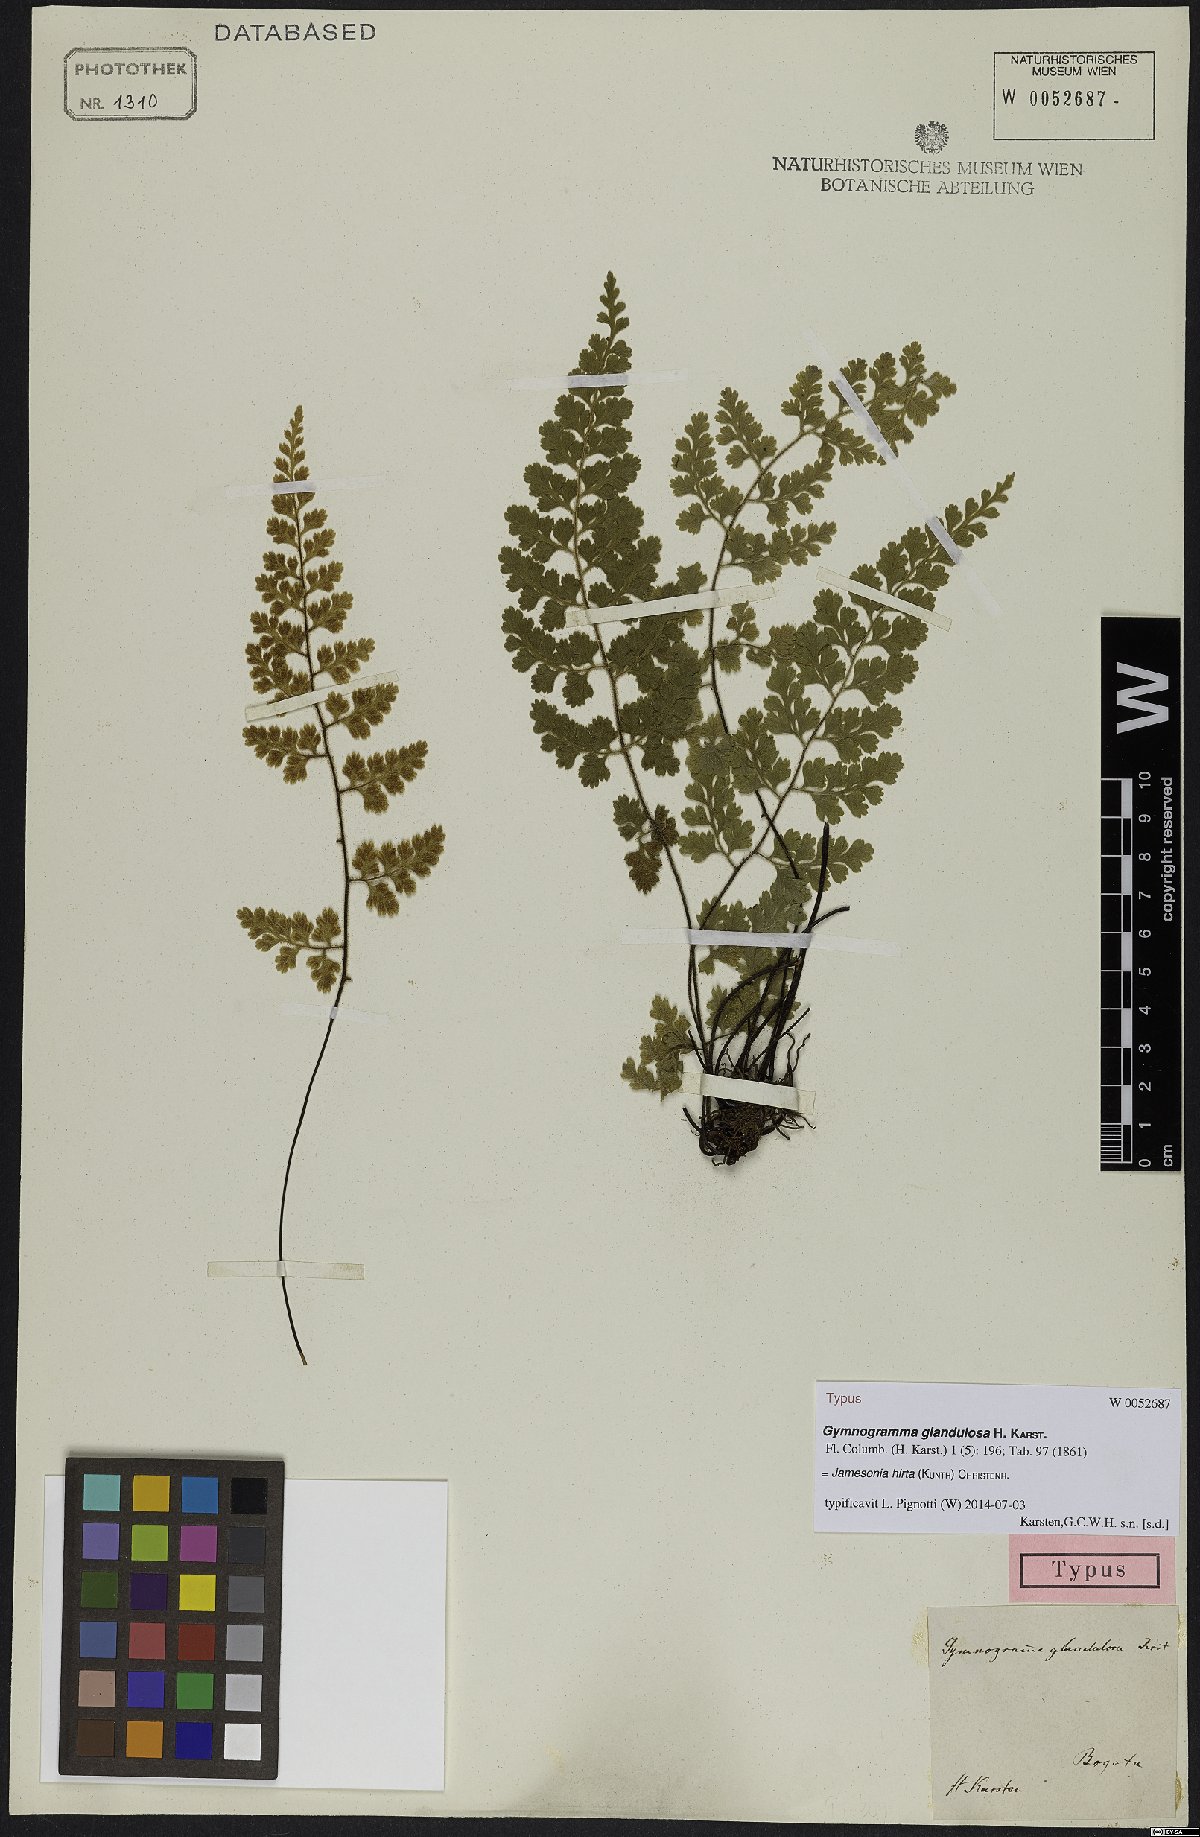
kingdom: Plantae
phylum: Tracheophyta
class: Polypodiopsida
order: Polypodiales
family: Pteridaceae
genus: Jamesonia
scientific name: Jamesonia hirta
